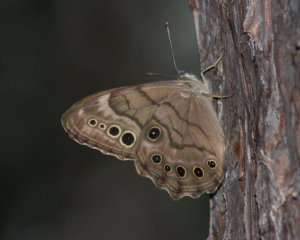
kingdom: Animalia
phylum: Arthropoda
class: Insecta
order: Lepidoptera
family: Nymphalidae
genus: Lethe
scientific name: Lethe anthedon
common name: Northern Pearly-Eye
